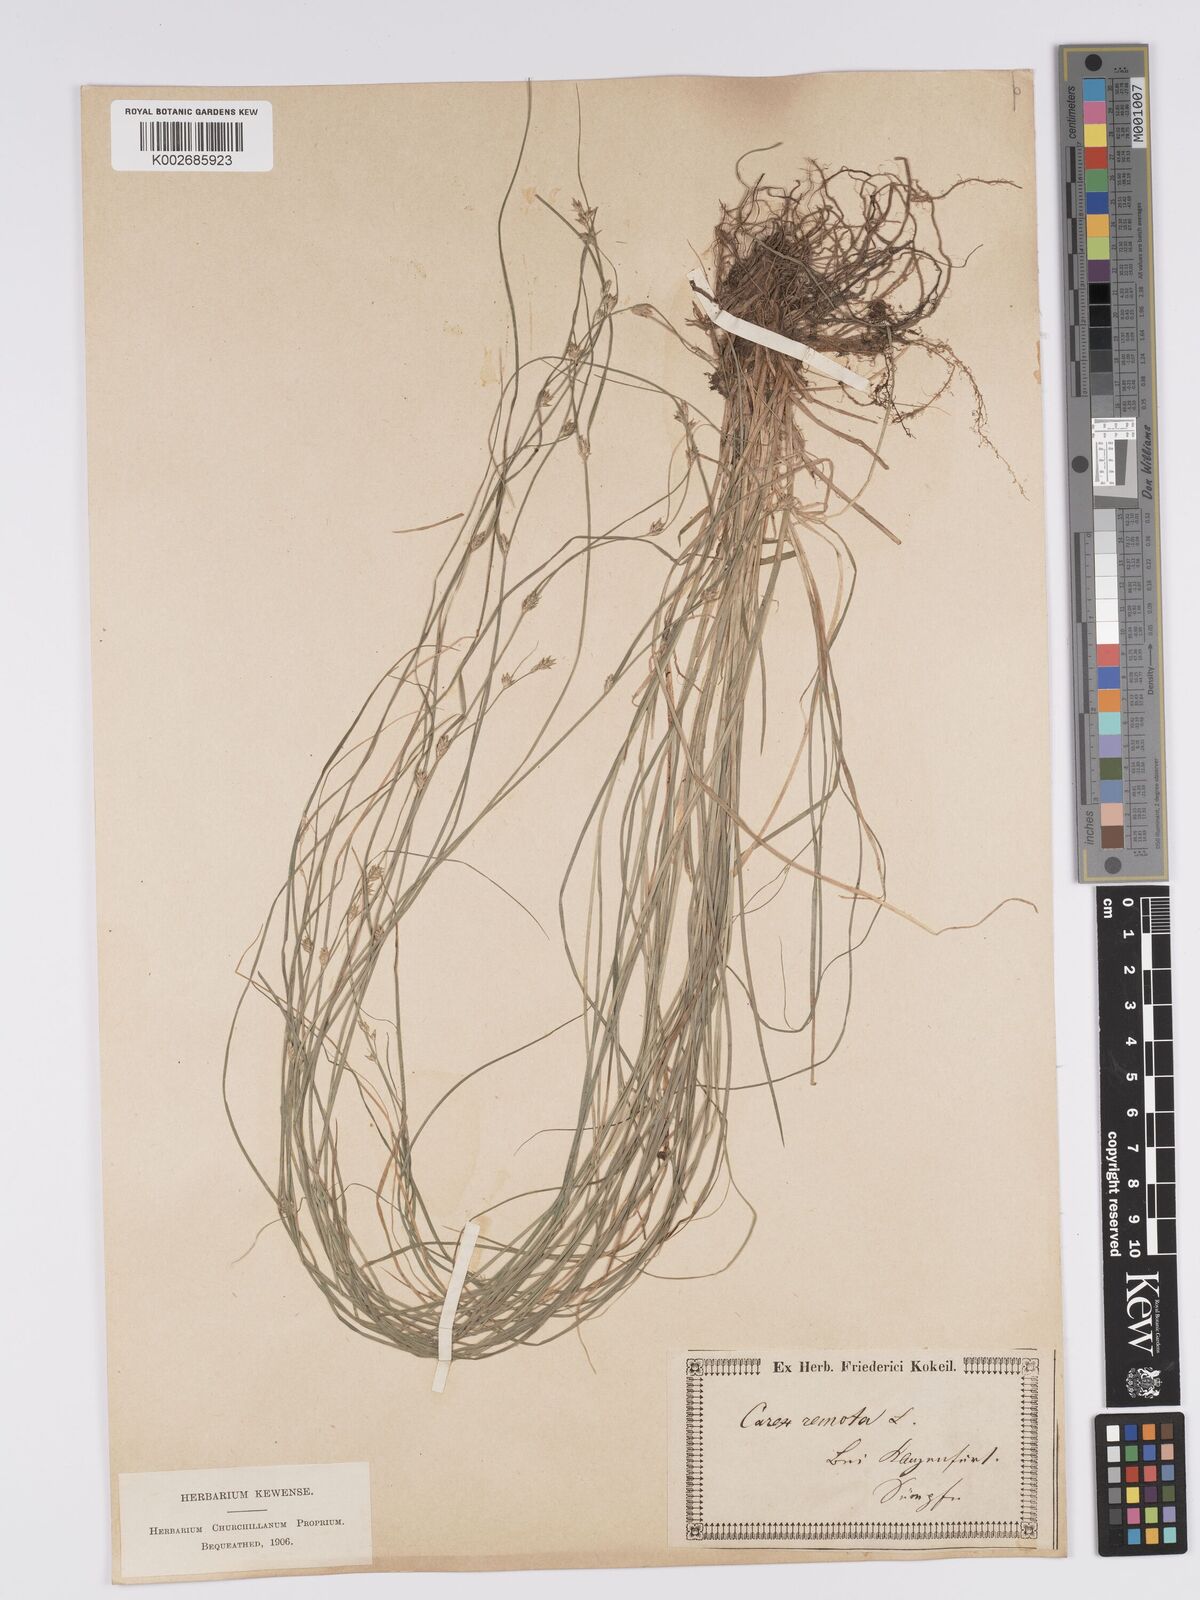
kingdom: Plantae
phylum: Tracheophyta
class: Liliopsida
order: Poales
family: Cyperaceae
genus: Carex
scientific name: Carex remota
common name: Remote sedge
